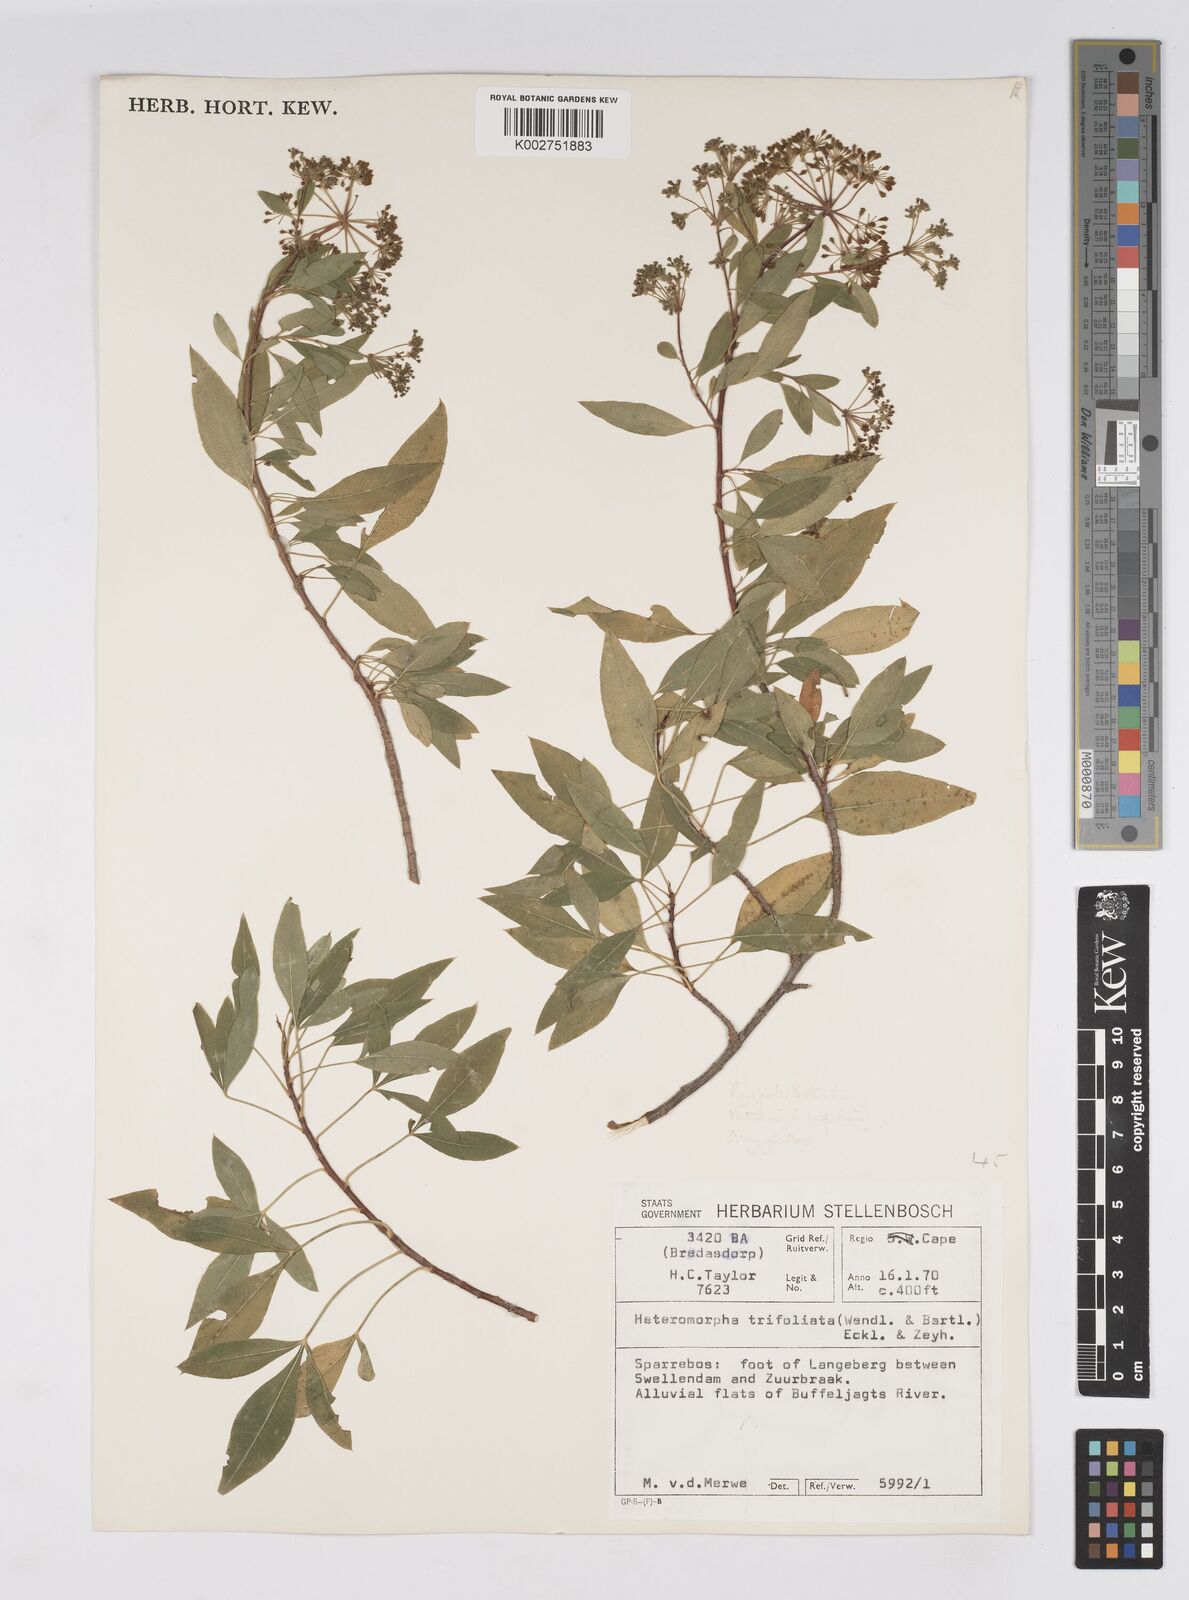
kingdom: Plantae
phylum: Tracheophyta
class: Magnoliopsida
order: Apiales
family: Apiaceae
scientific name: Apiaceae
